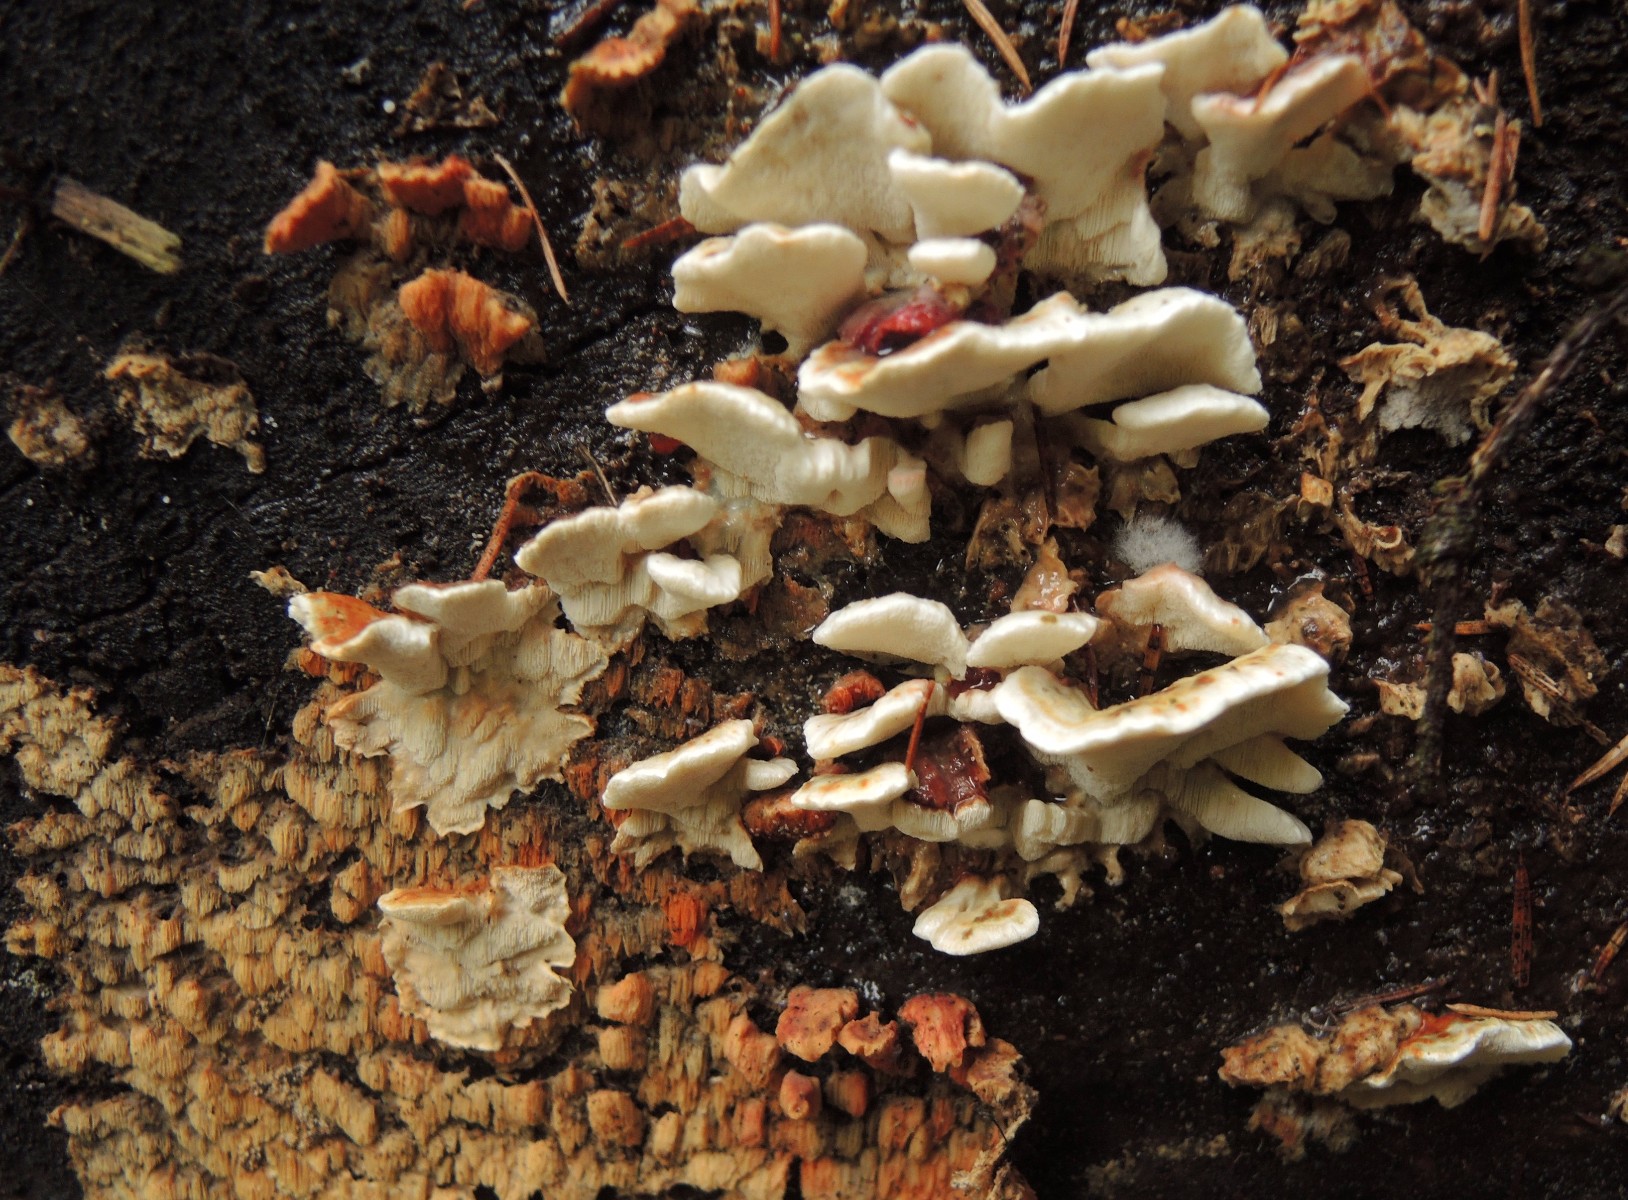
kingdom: Fungi
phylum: Basidiomycota
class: Agaricomycetes
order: Polyporales
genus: Fuscopostia
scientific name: Fuscopostia fragilis
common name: brunende kødporesvamp
